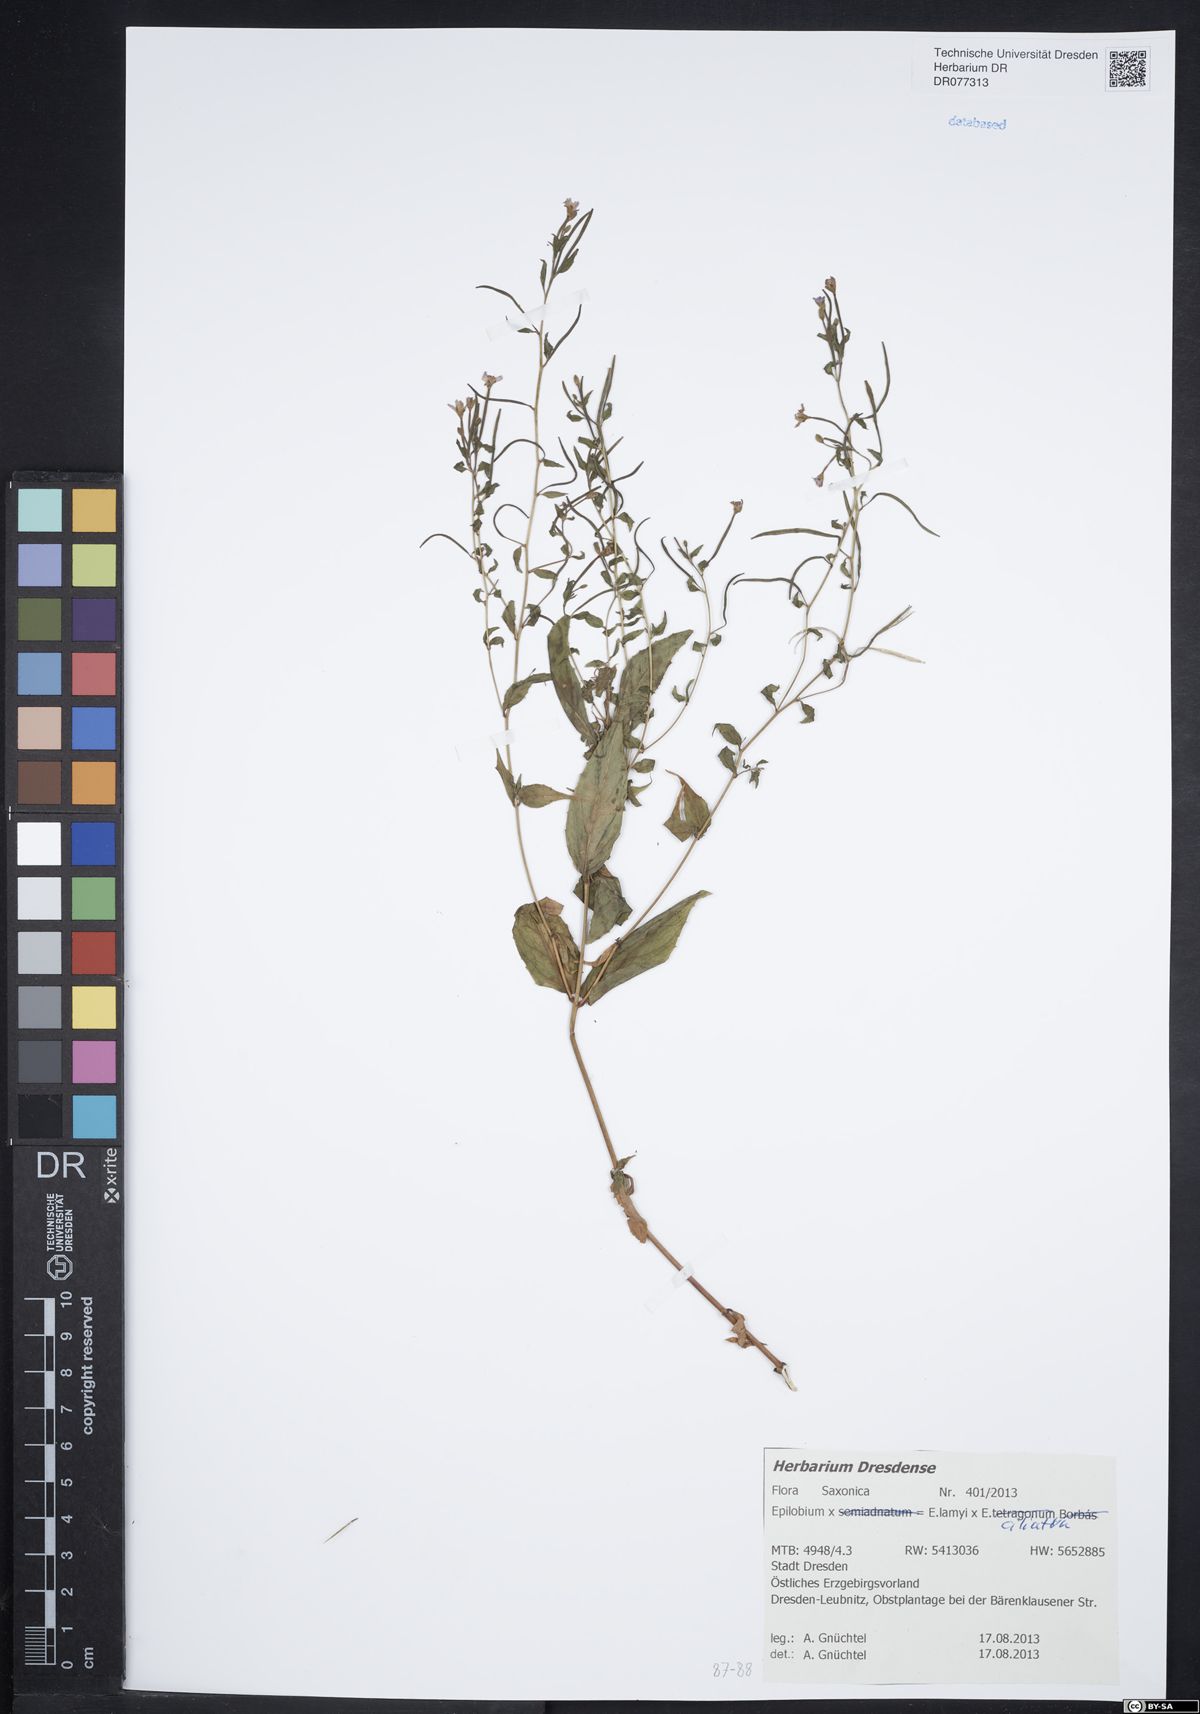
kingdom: Plantae
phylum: Tracheophyta
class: Magnoliopsida
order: Myrtales
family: Onagraceae
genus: Epilobium
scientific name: Epilobium ciliatum
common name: American willowherb
